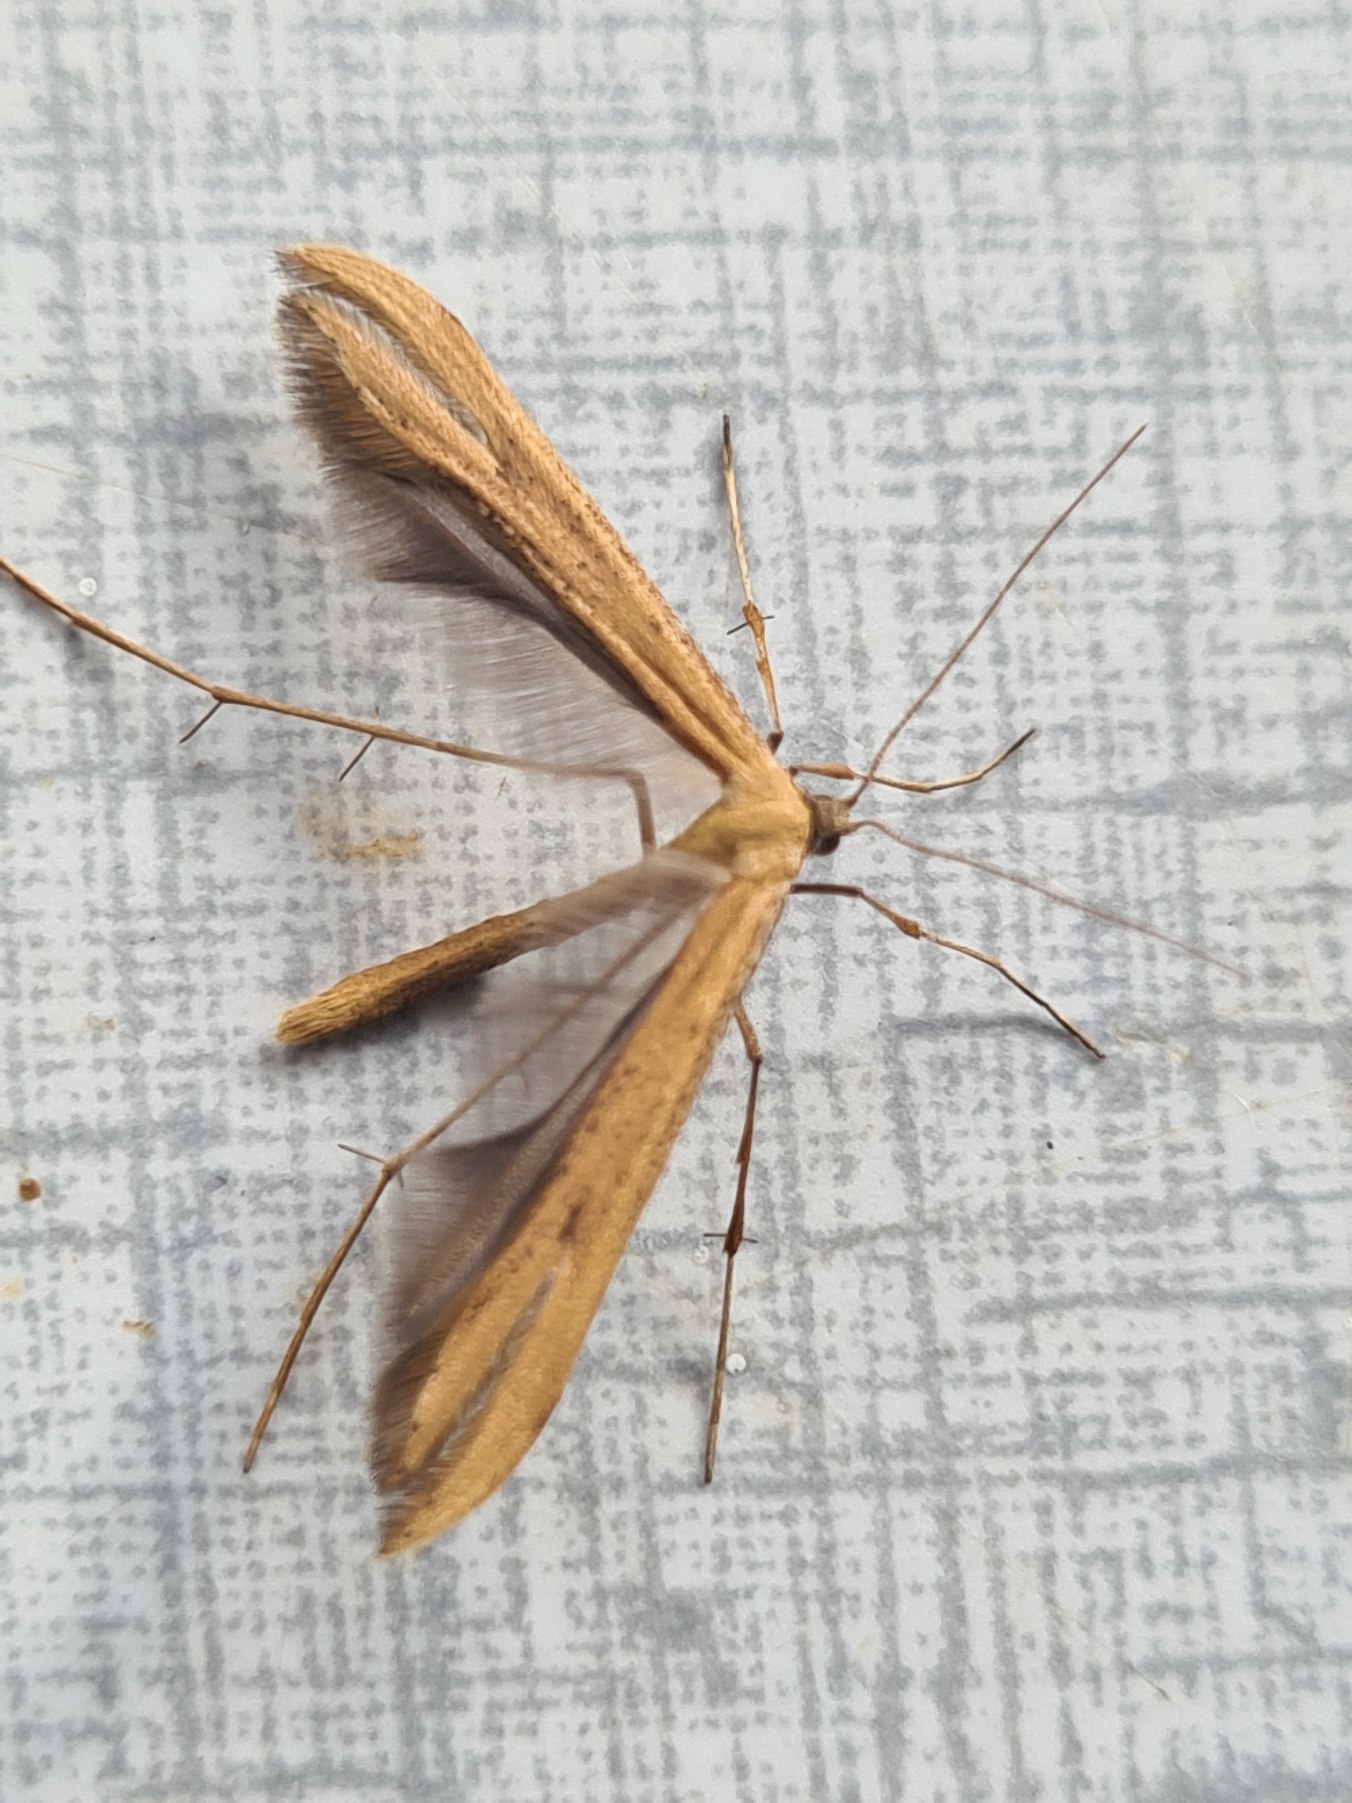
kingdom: Animalia
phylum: Arthropoda
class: Insecta
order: Lepidoptera
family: Pterophoridae
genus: Emmelina
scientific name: Emmelina monodactyla
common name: Snerlefjermøl
